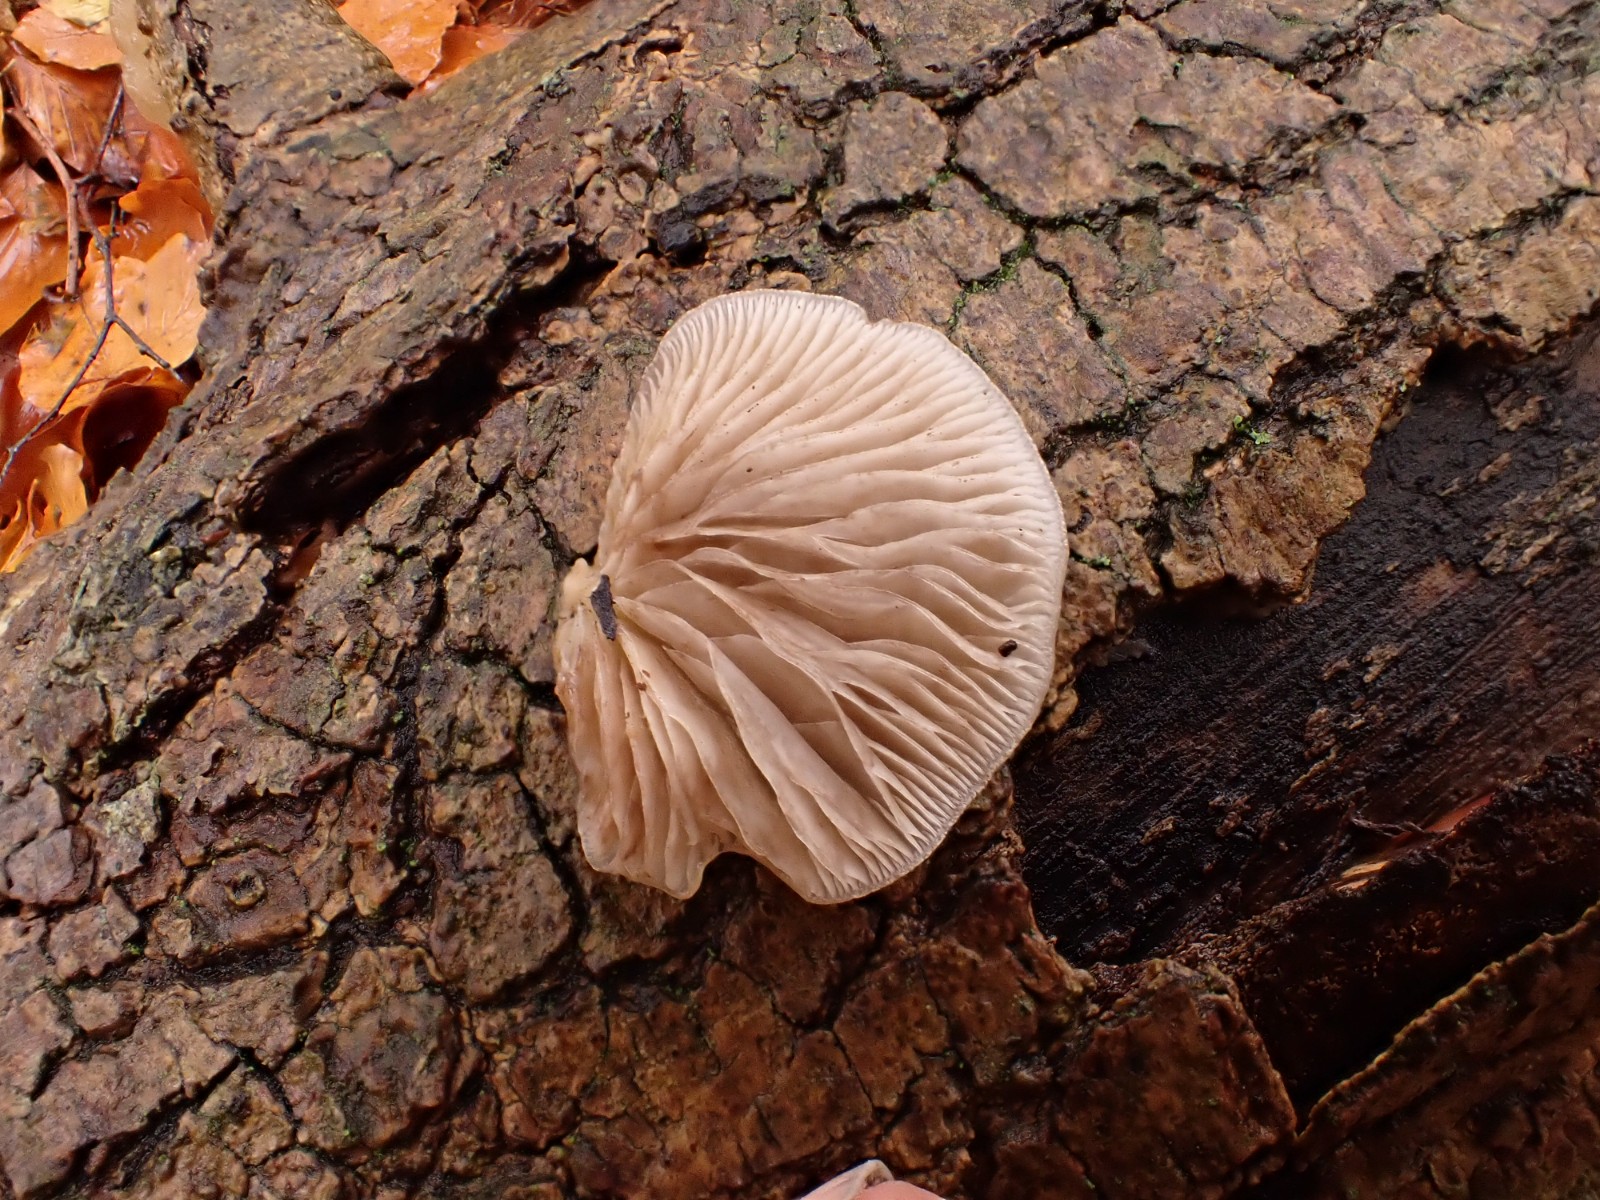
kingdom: Fungi
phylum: Basidiomycota
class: Agaricomycetes
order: Agaricales
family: Crepidotaceae
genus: Crepidotus
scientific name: Crepidotus mollis
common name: blød muslingesvamp
